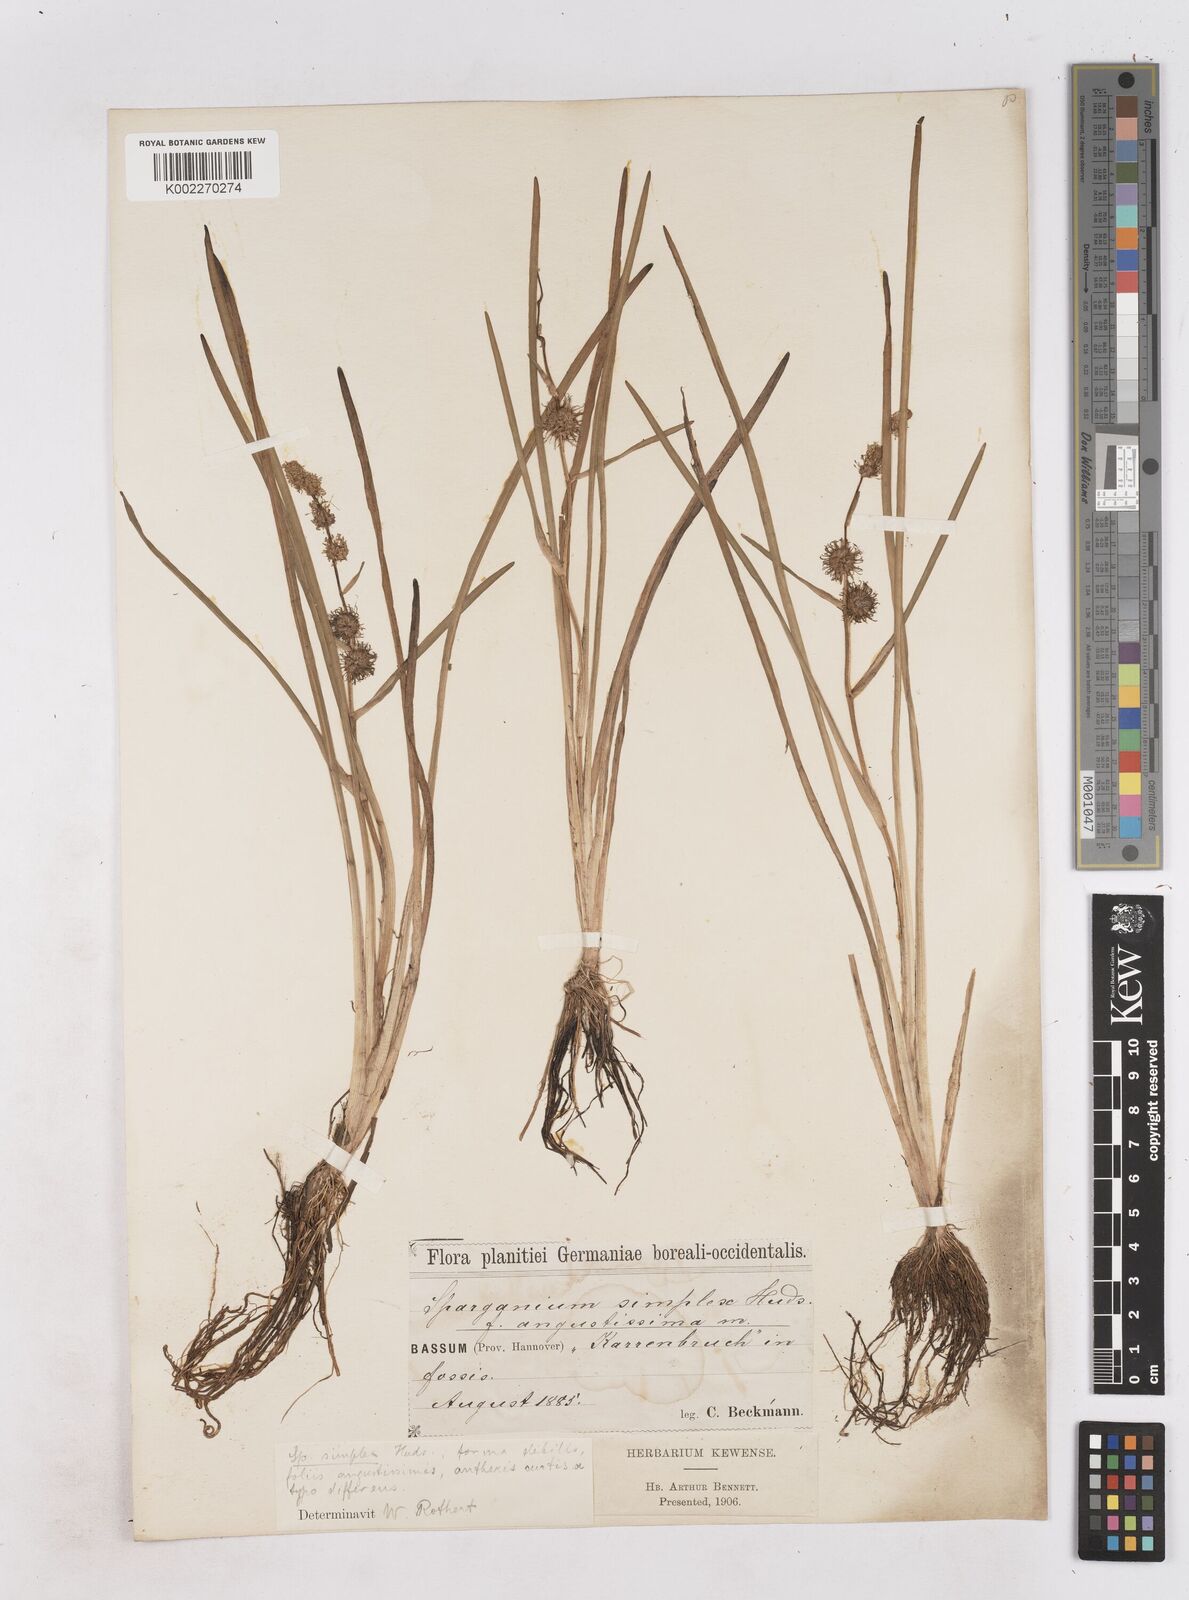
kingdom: Plantae
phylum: Tracheophyta
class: Liliopsida
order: Poales
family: Typhaceae
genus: Sparganium
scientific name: Sparganium emersum
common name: Unbranched bur-reed
